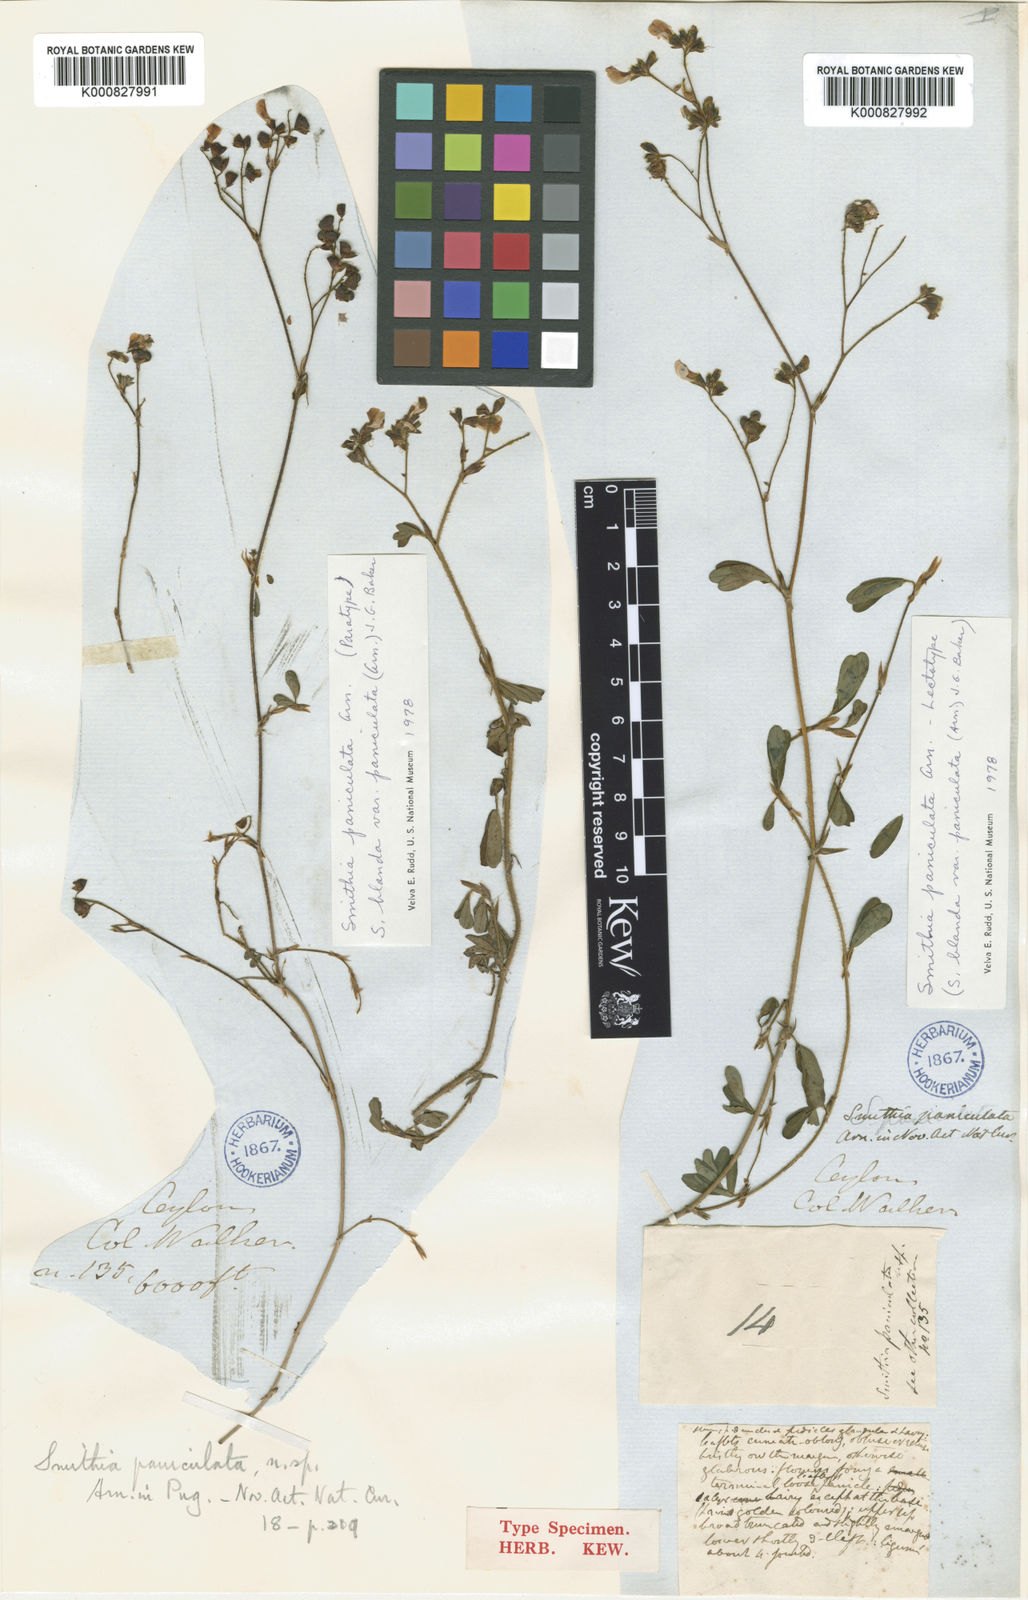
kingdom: Plantae
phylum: Tracheophyta
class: Magnoliopsida
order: Fabales
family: Fabaceae
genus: Smithia
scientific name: Smithia blanda
